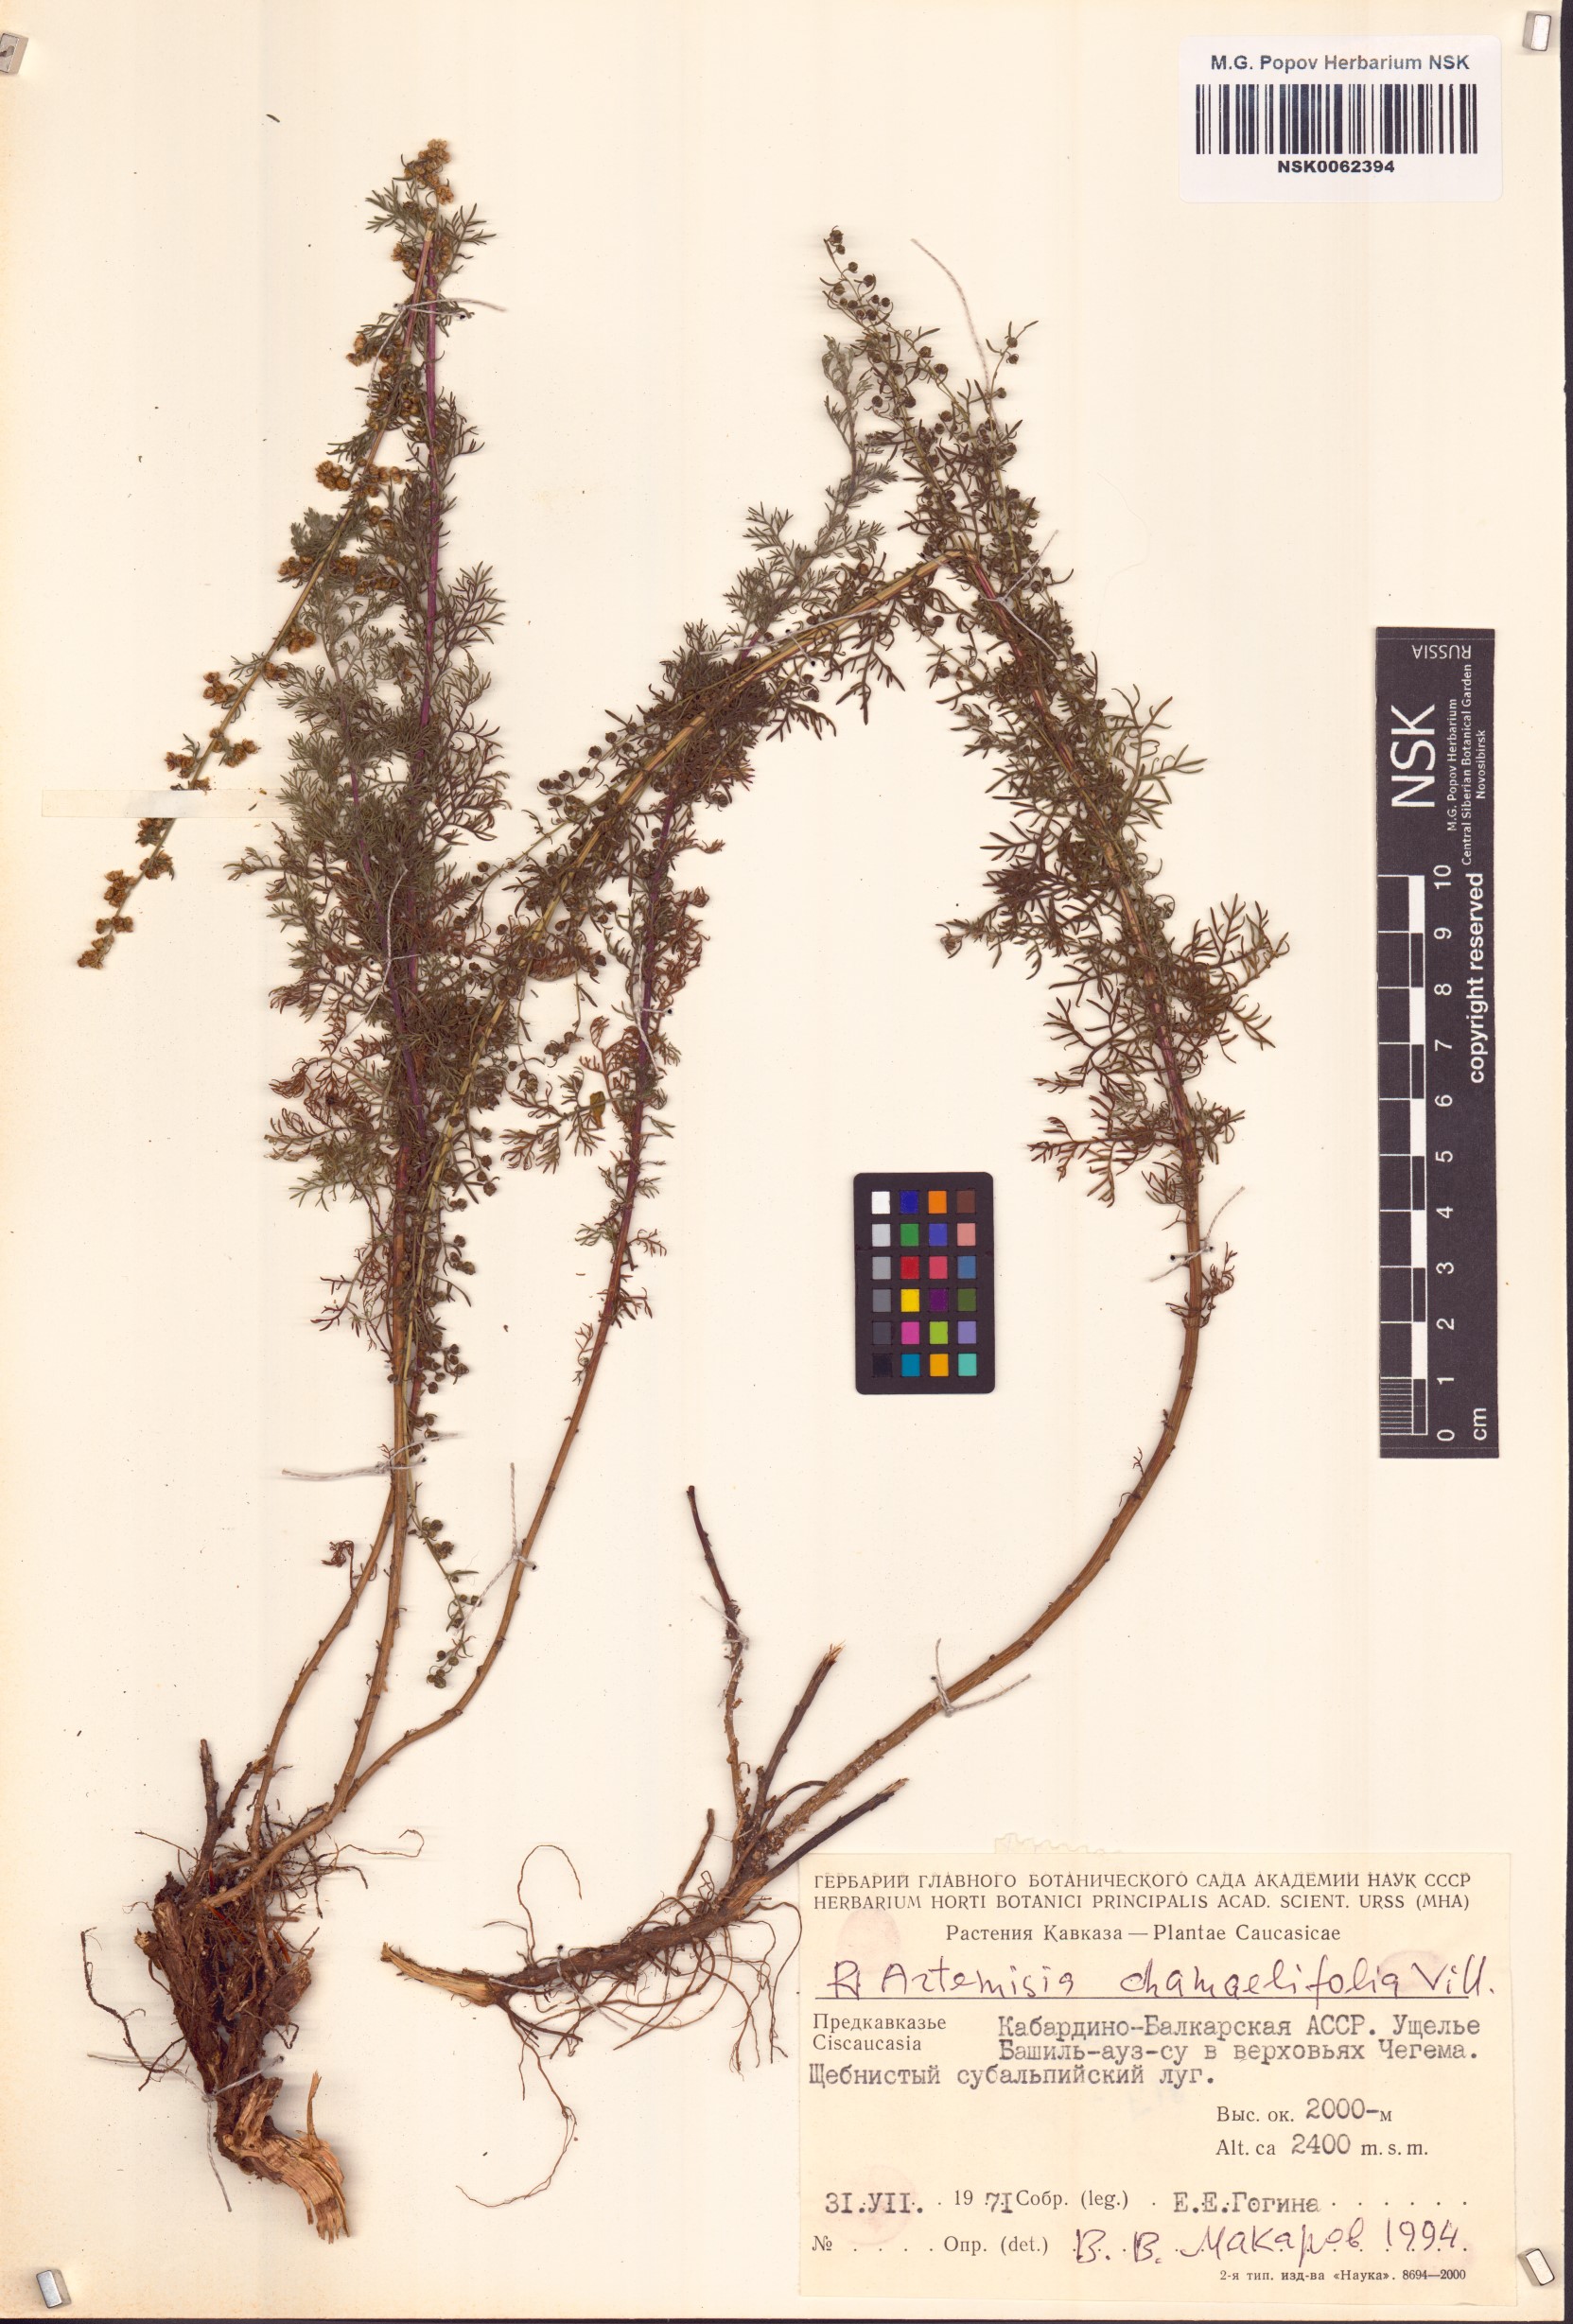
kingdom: Plantae
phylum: Tracheophyta
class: Magnoliopsida
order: Asterales
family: Asteraceae
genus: Artemisia
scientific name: Artemisia chamaemelifolia
